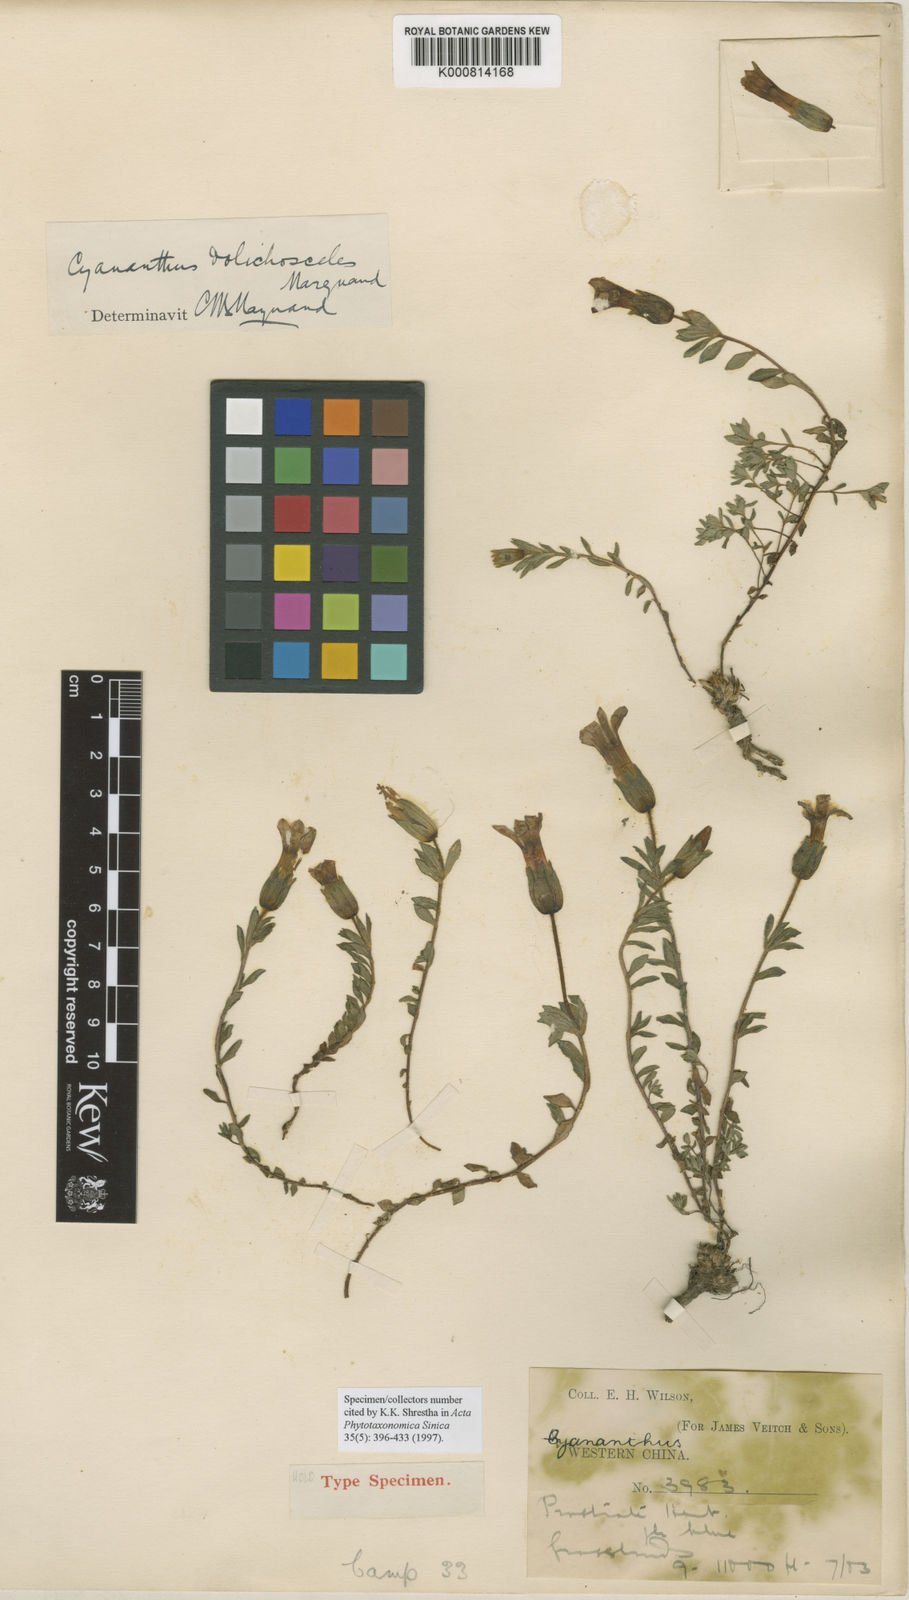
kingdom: Plantae
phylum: Tracheophyta
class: Magnoliopsida
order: Asterales
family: Campanulaceae
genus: Cyananthus
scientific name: Cyananthus incanus
